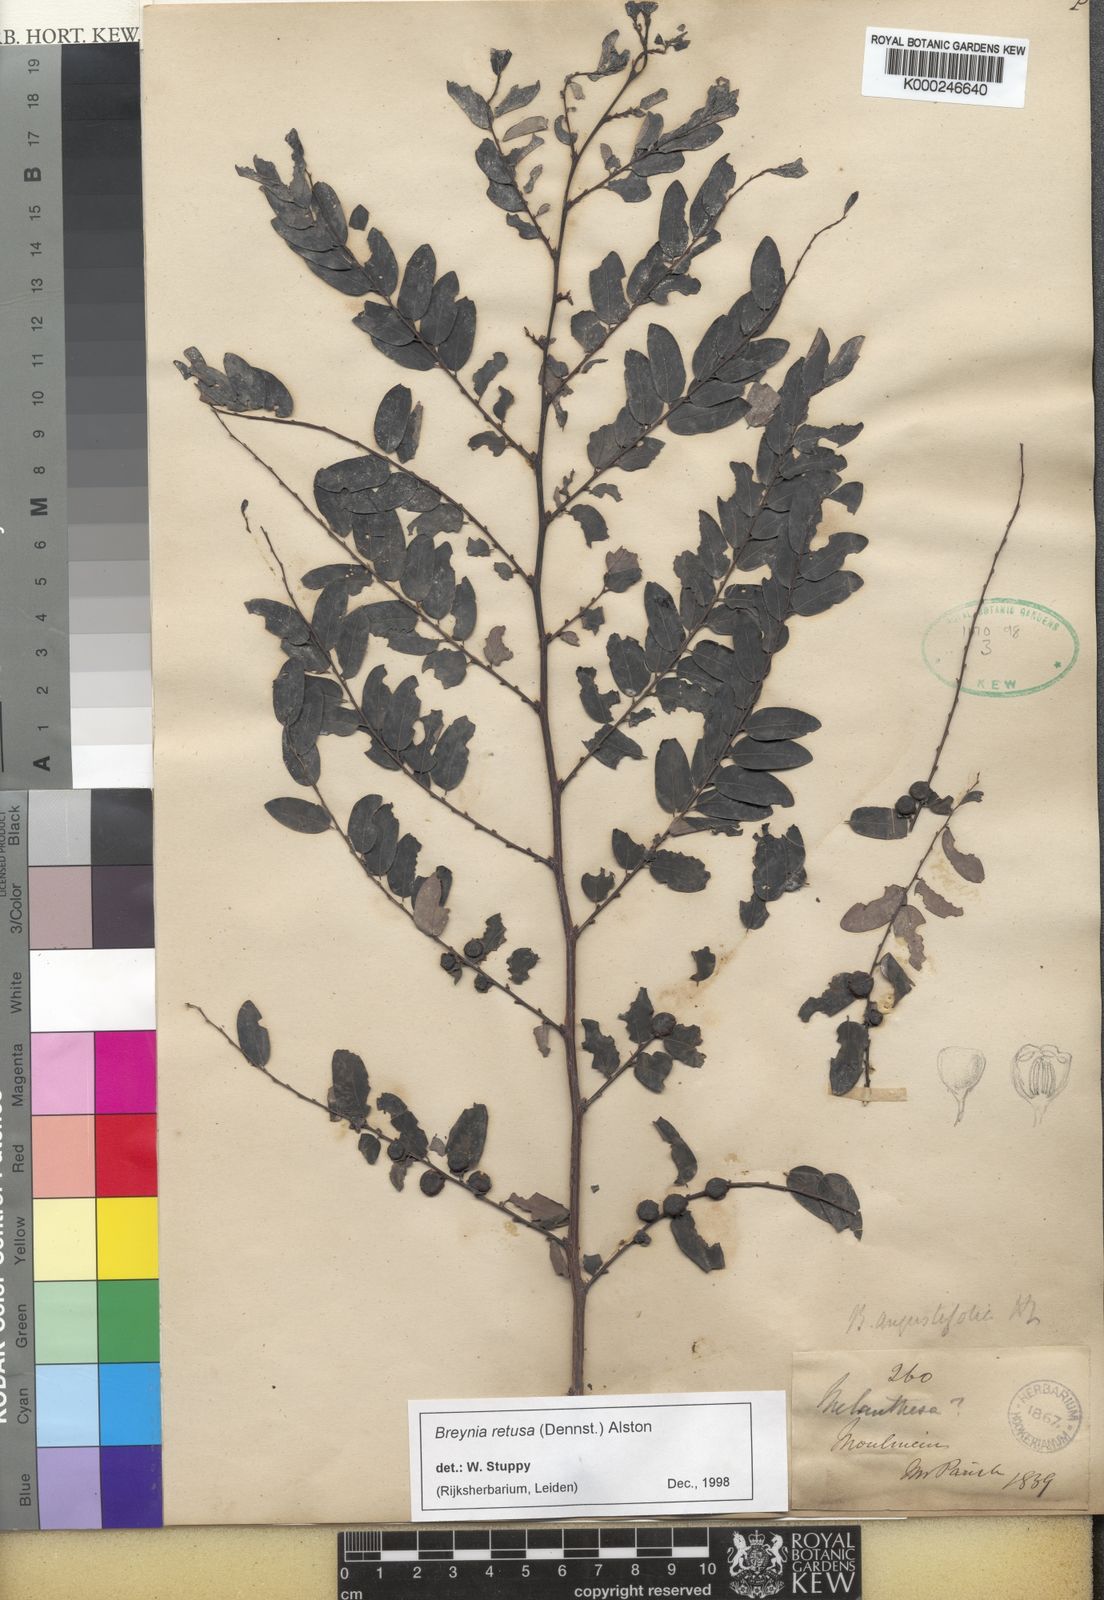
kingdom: Plantae
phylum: Tracheophyta
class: Magnoliopsida
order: Malpighiales
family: Phyllanthaceae
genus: Breynia
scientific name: Breynia retusa
